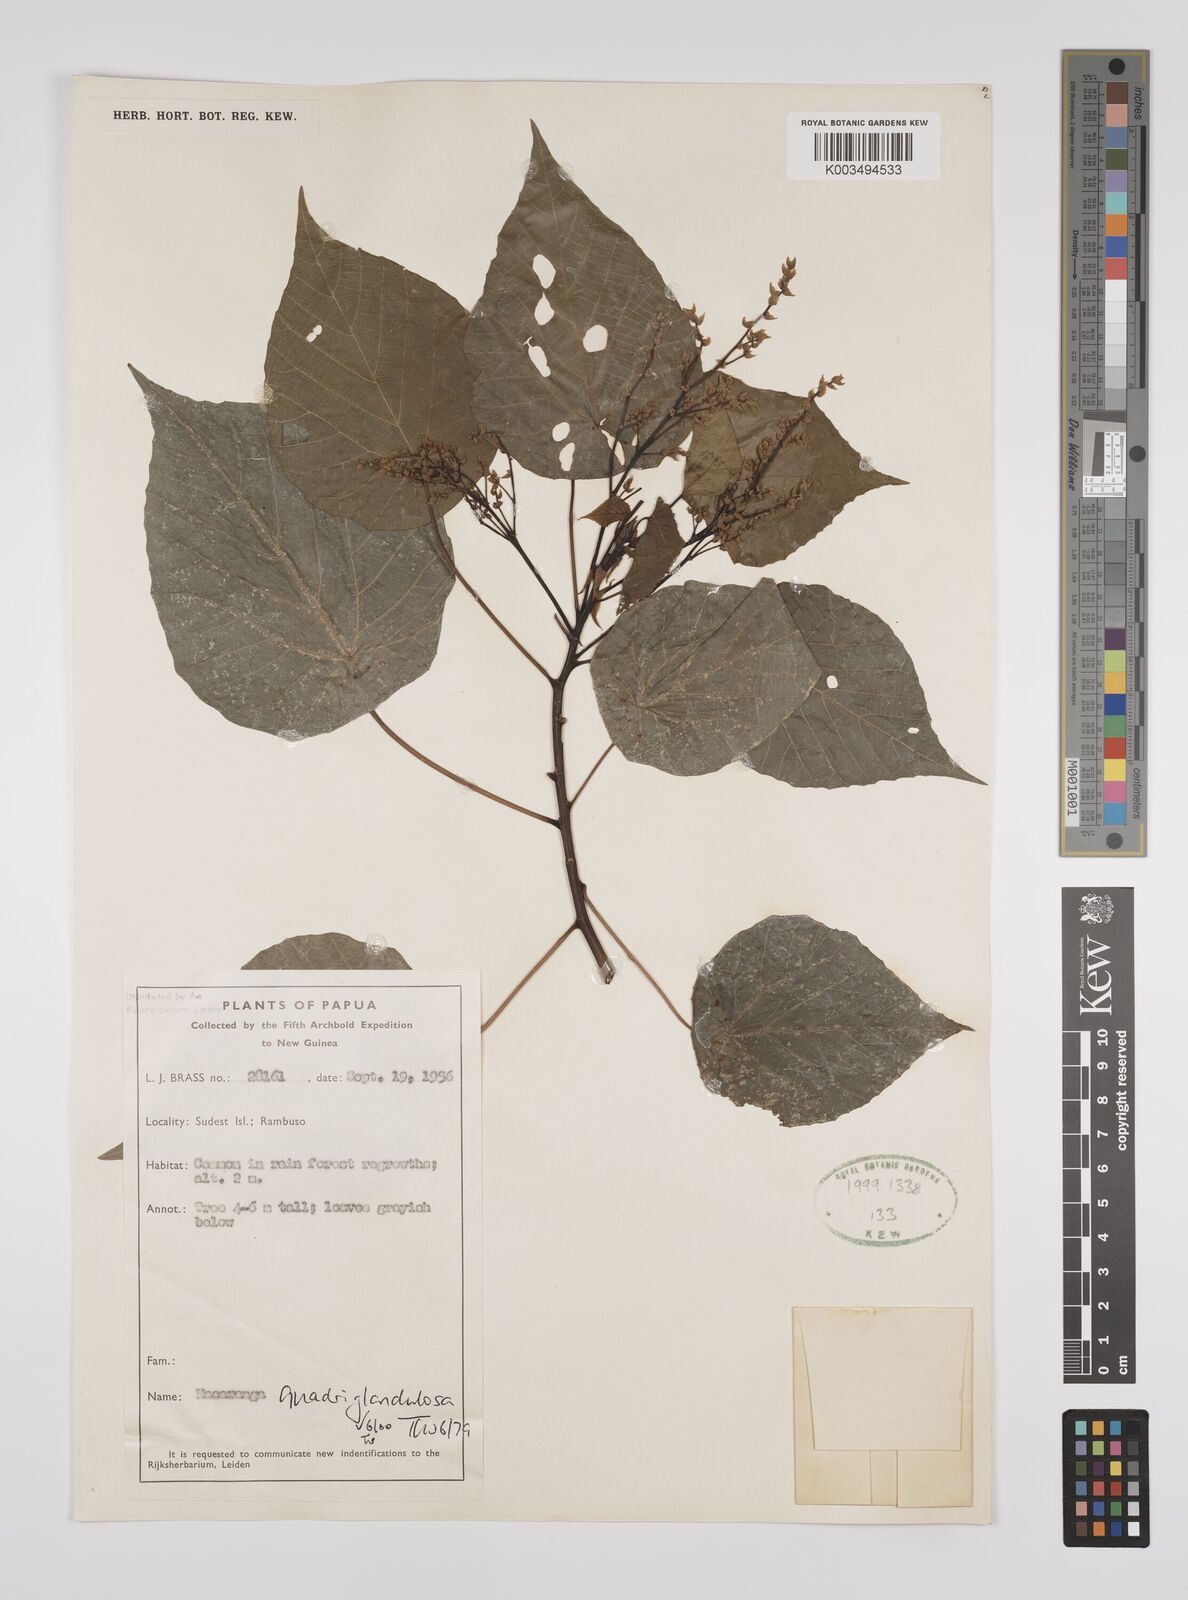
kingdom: Plantae
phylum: Tracheophyta
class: Magnoliopsida
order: Malpighiales
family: Euphorbiaceae
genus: Macaranga
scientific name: Macaranga quadriglandulosa
